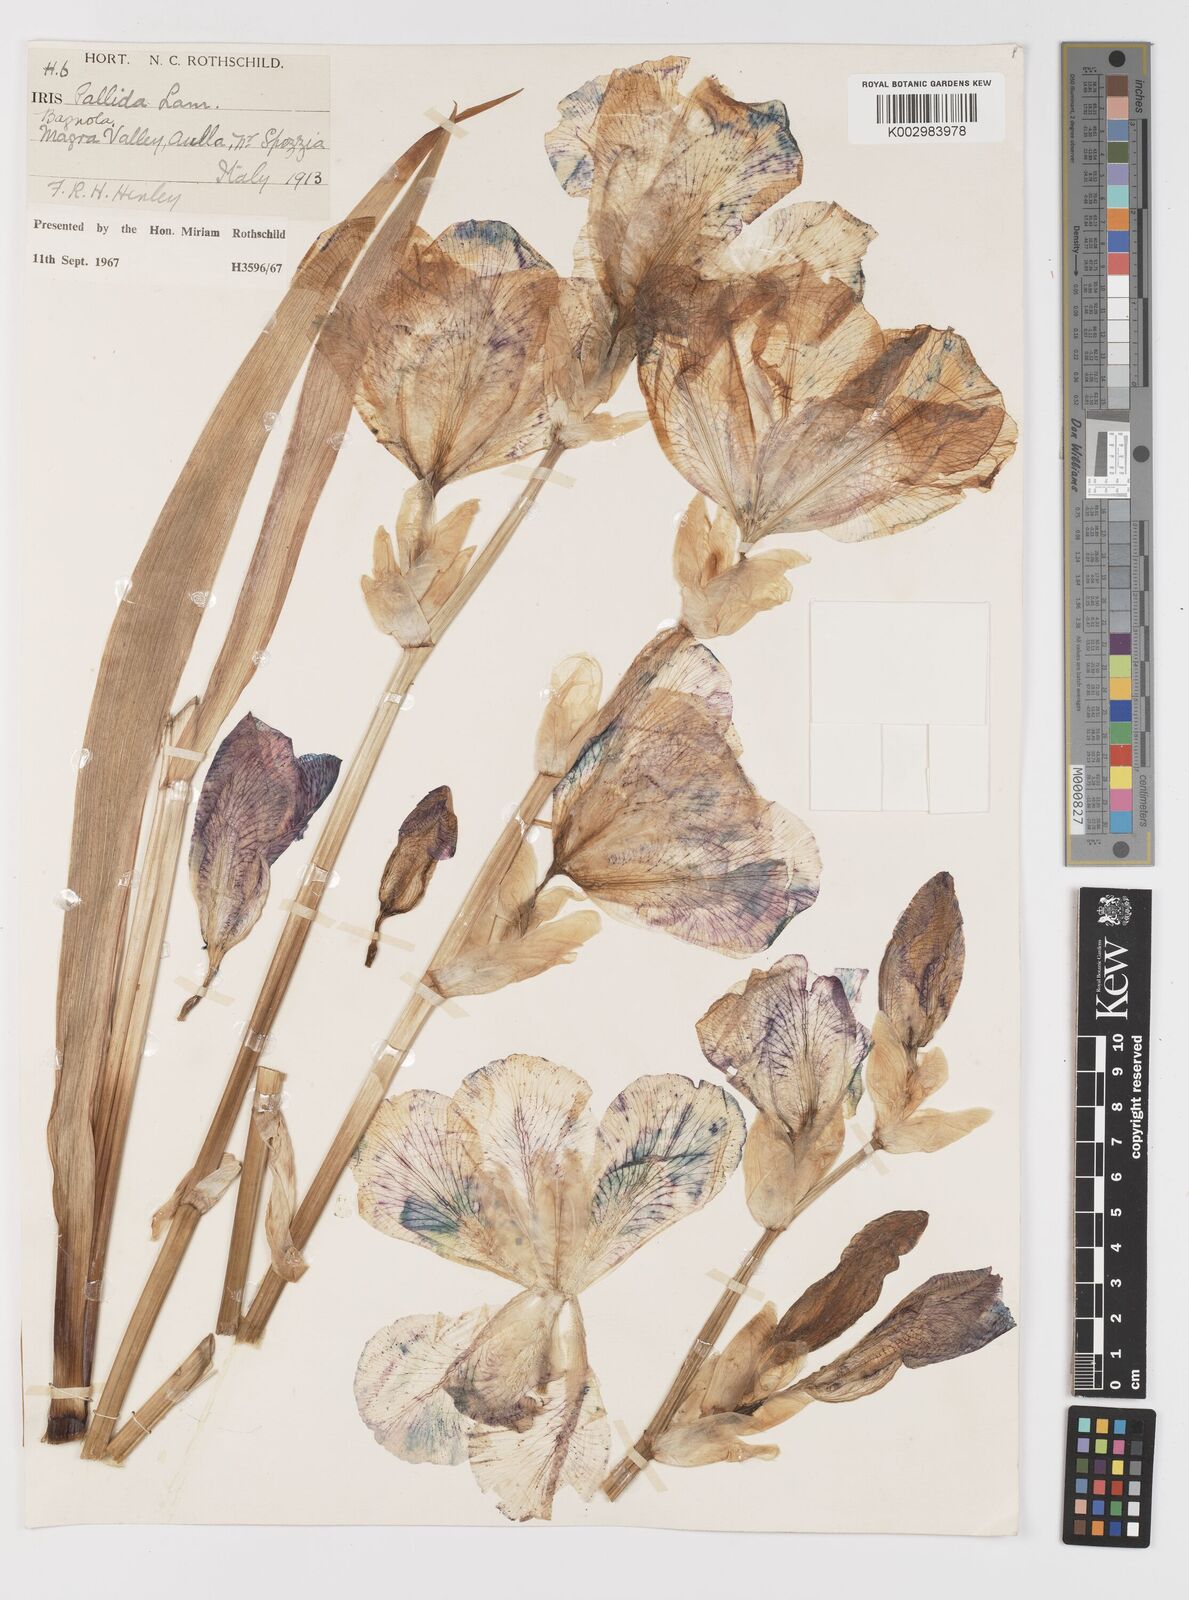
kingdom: Plantae
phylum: Tracheophyta
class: Liliopsida
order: Asparagales
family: Iridaceae
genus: Iris
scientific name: Iris halophila
